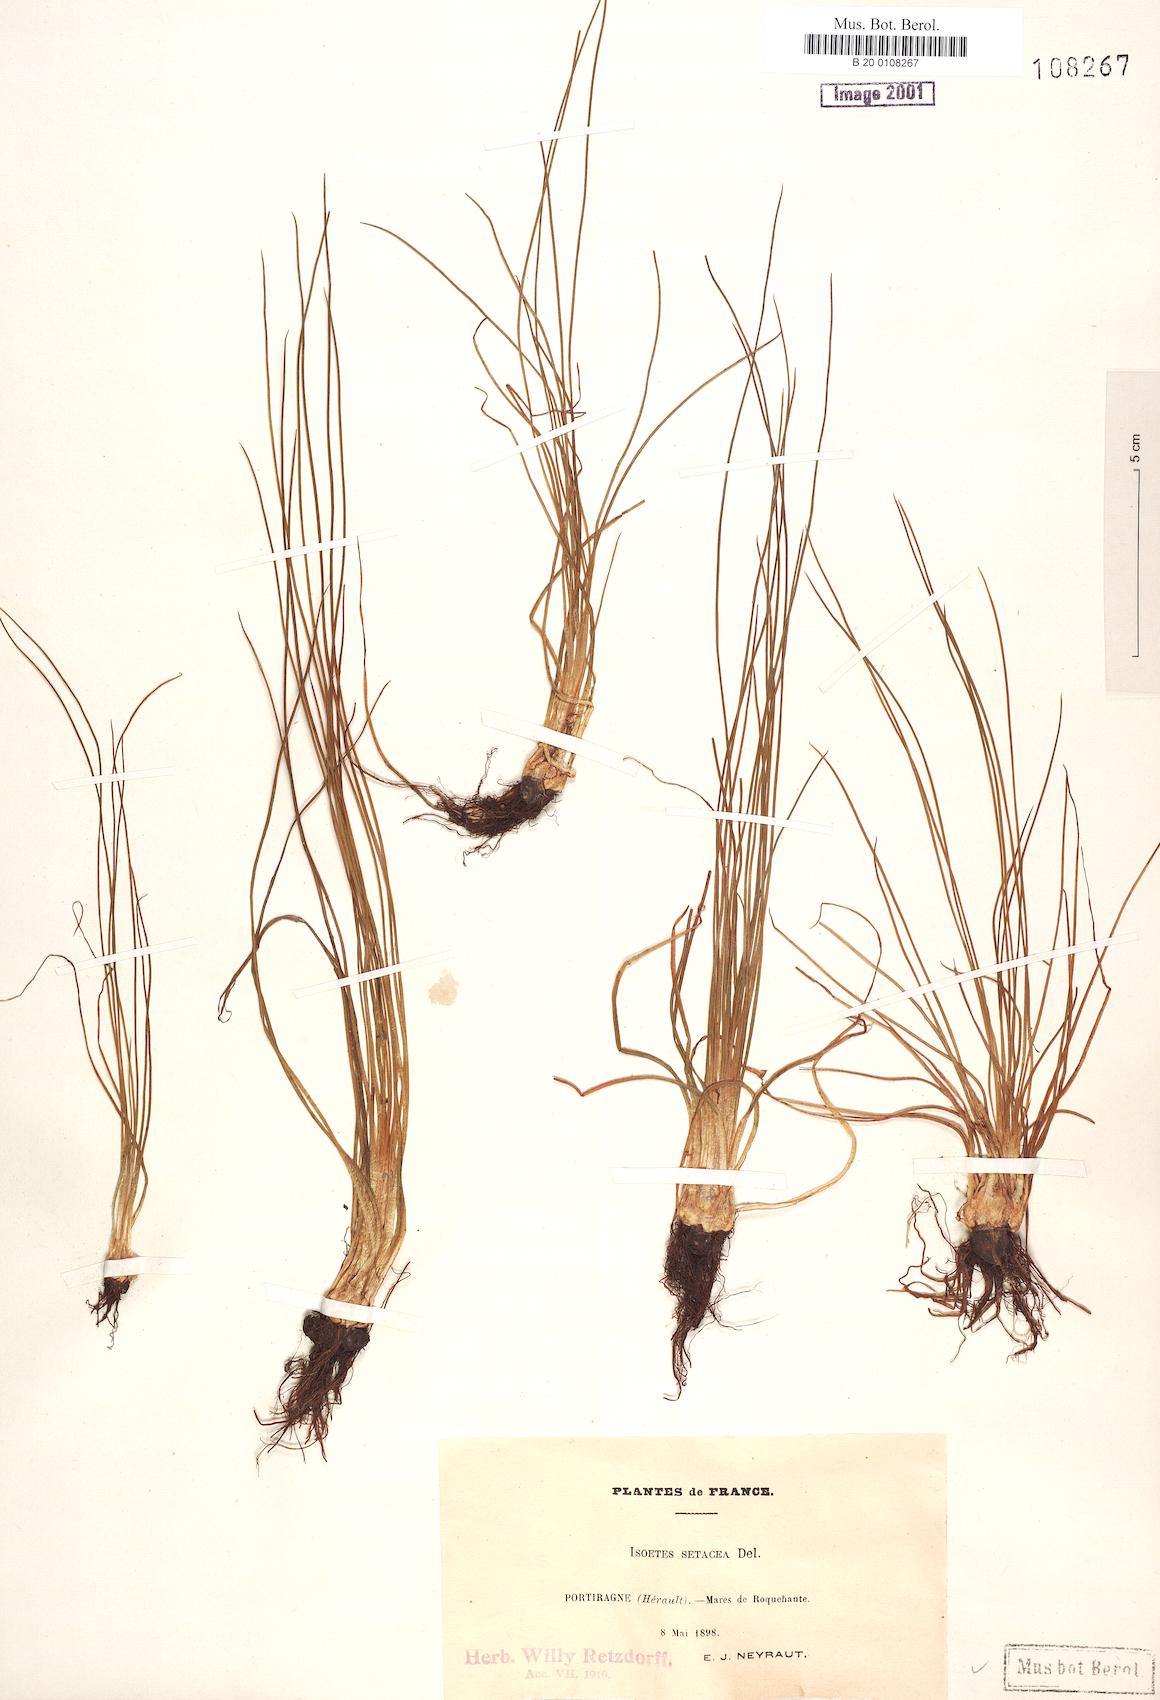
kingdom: Plantae
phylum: Tracheophyta
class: Lycopodiopsida
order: Isoetales
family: Isoetaceae
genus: Isoetes
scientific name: Isoetes lacustris
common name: Common quillwort
